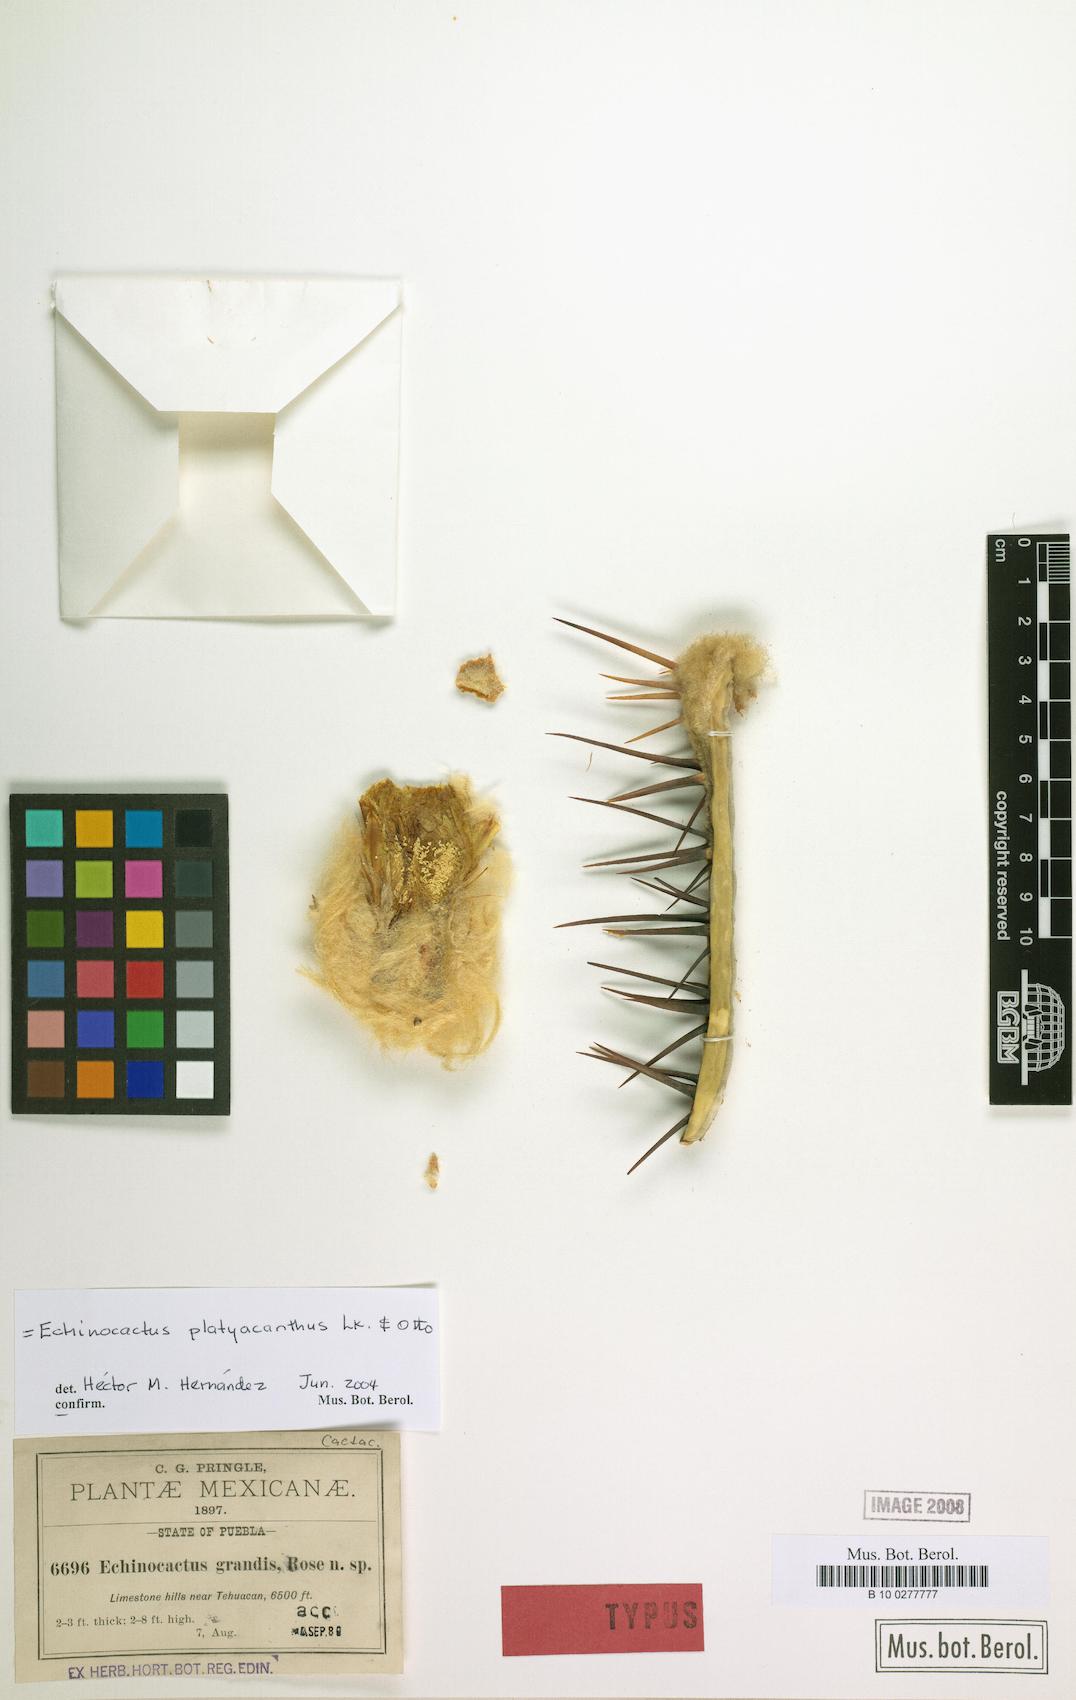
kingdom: Plantae
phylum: Tracheophyta
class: Magnoliopsida
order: Caryophyllales
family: Cactaceae
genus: Echinocactus
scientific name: Echinocactus platyacanthus
